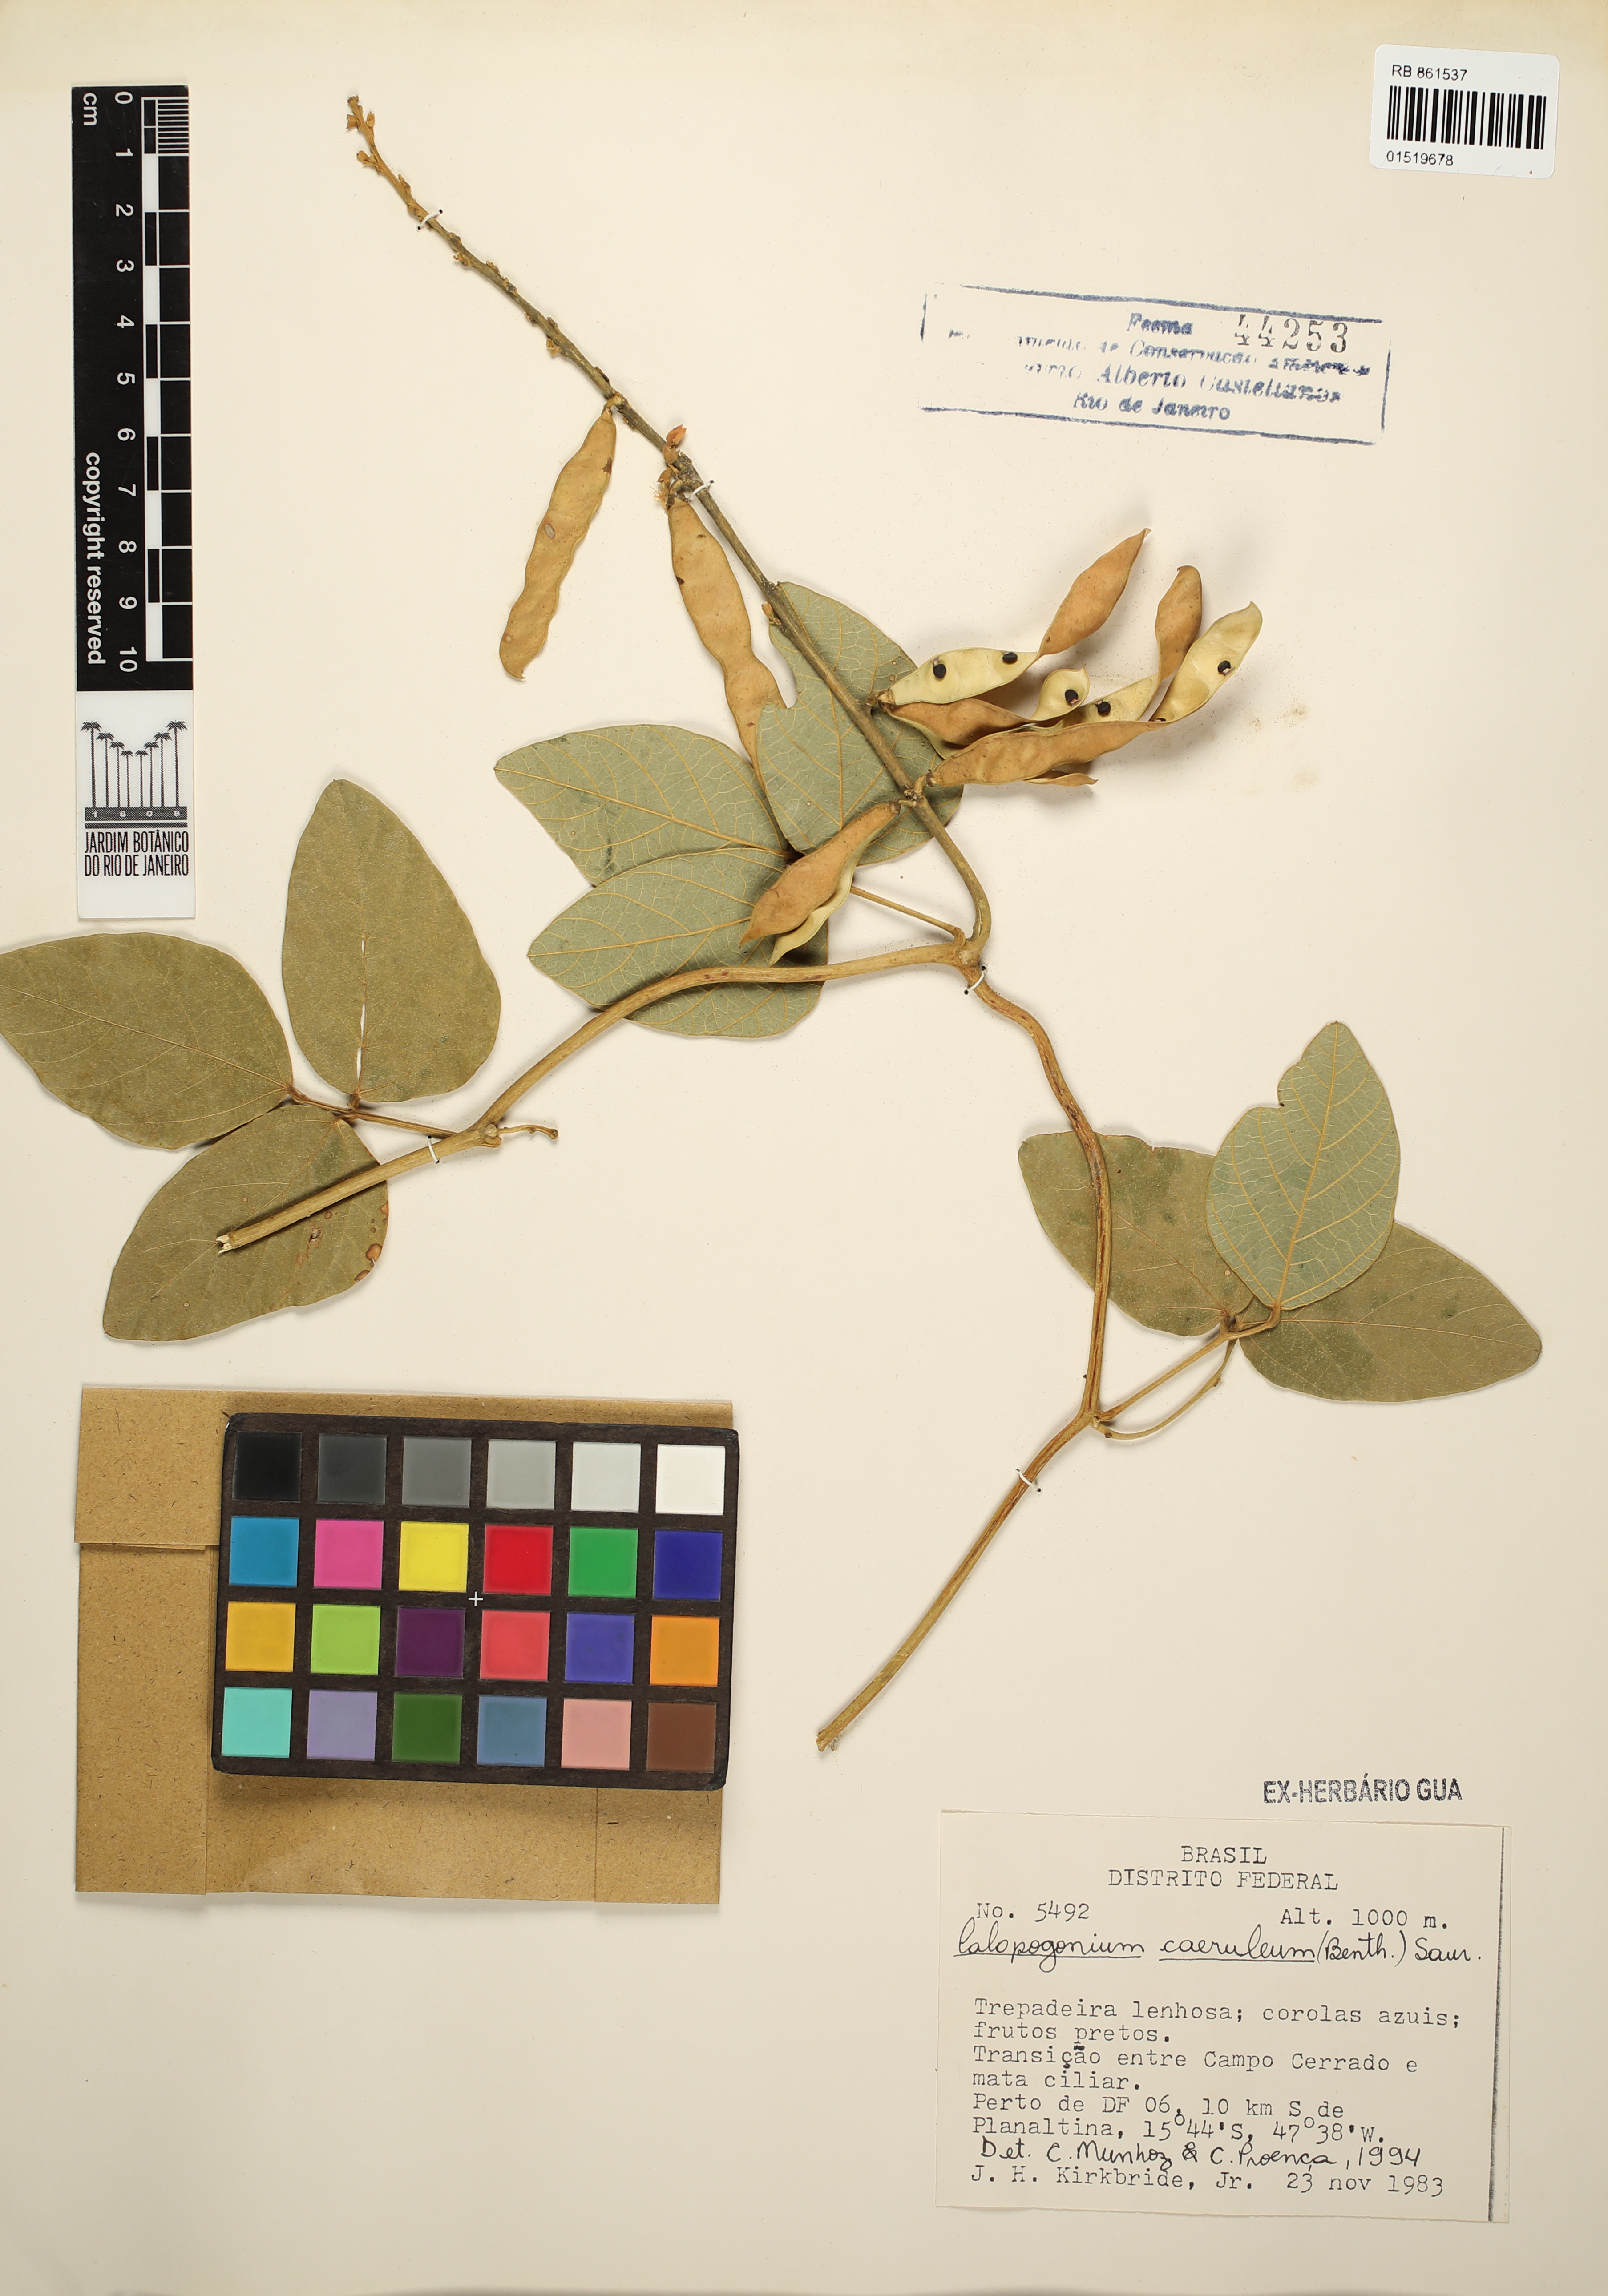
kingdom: Plantae
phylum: Tracheophyta
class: Magnoliopsida
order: Fabales
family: Fabaceae
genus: Calopogonium
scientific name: Calopogonium caeruleum
